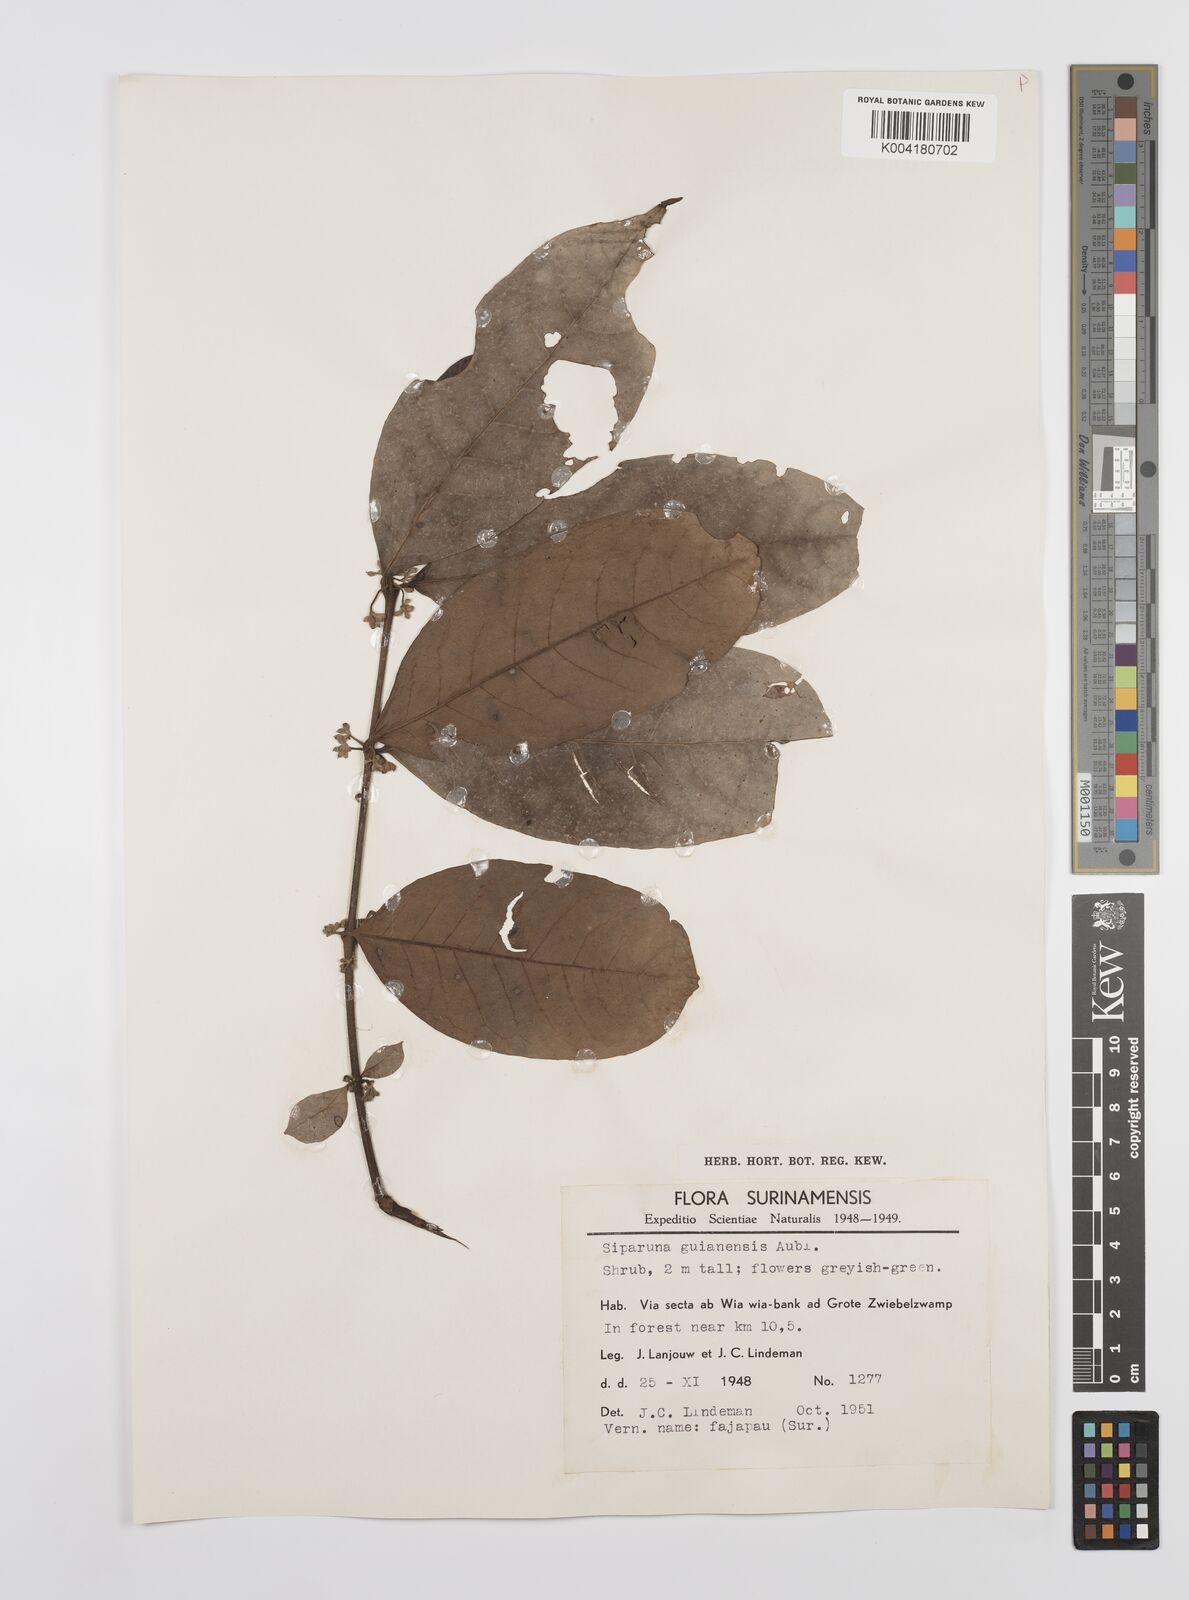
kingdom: Plantae
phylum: Tracheophyta
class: Magnoliopsida
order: Laurales
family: Siparunaceae
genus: Siparuna
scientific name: Siparuna guianensis
